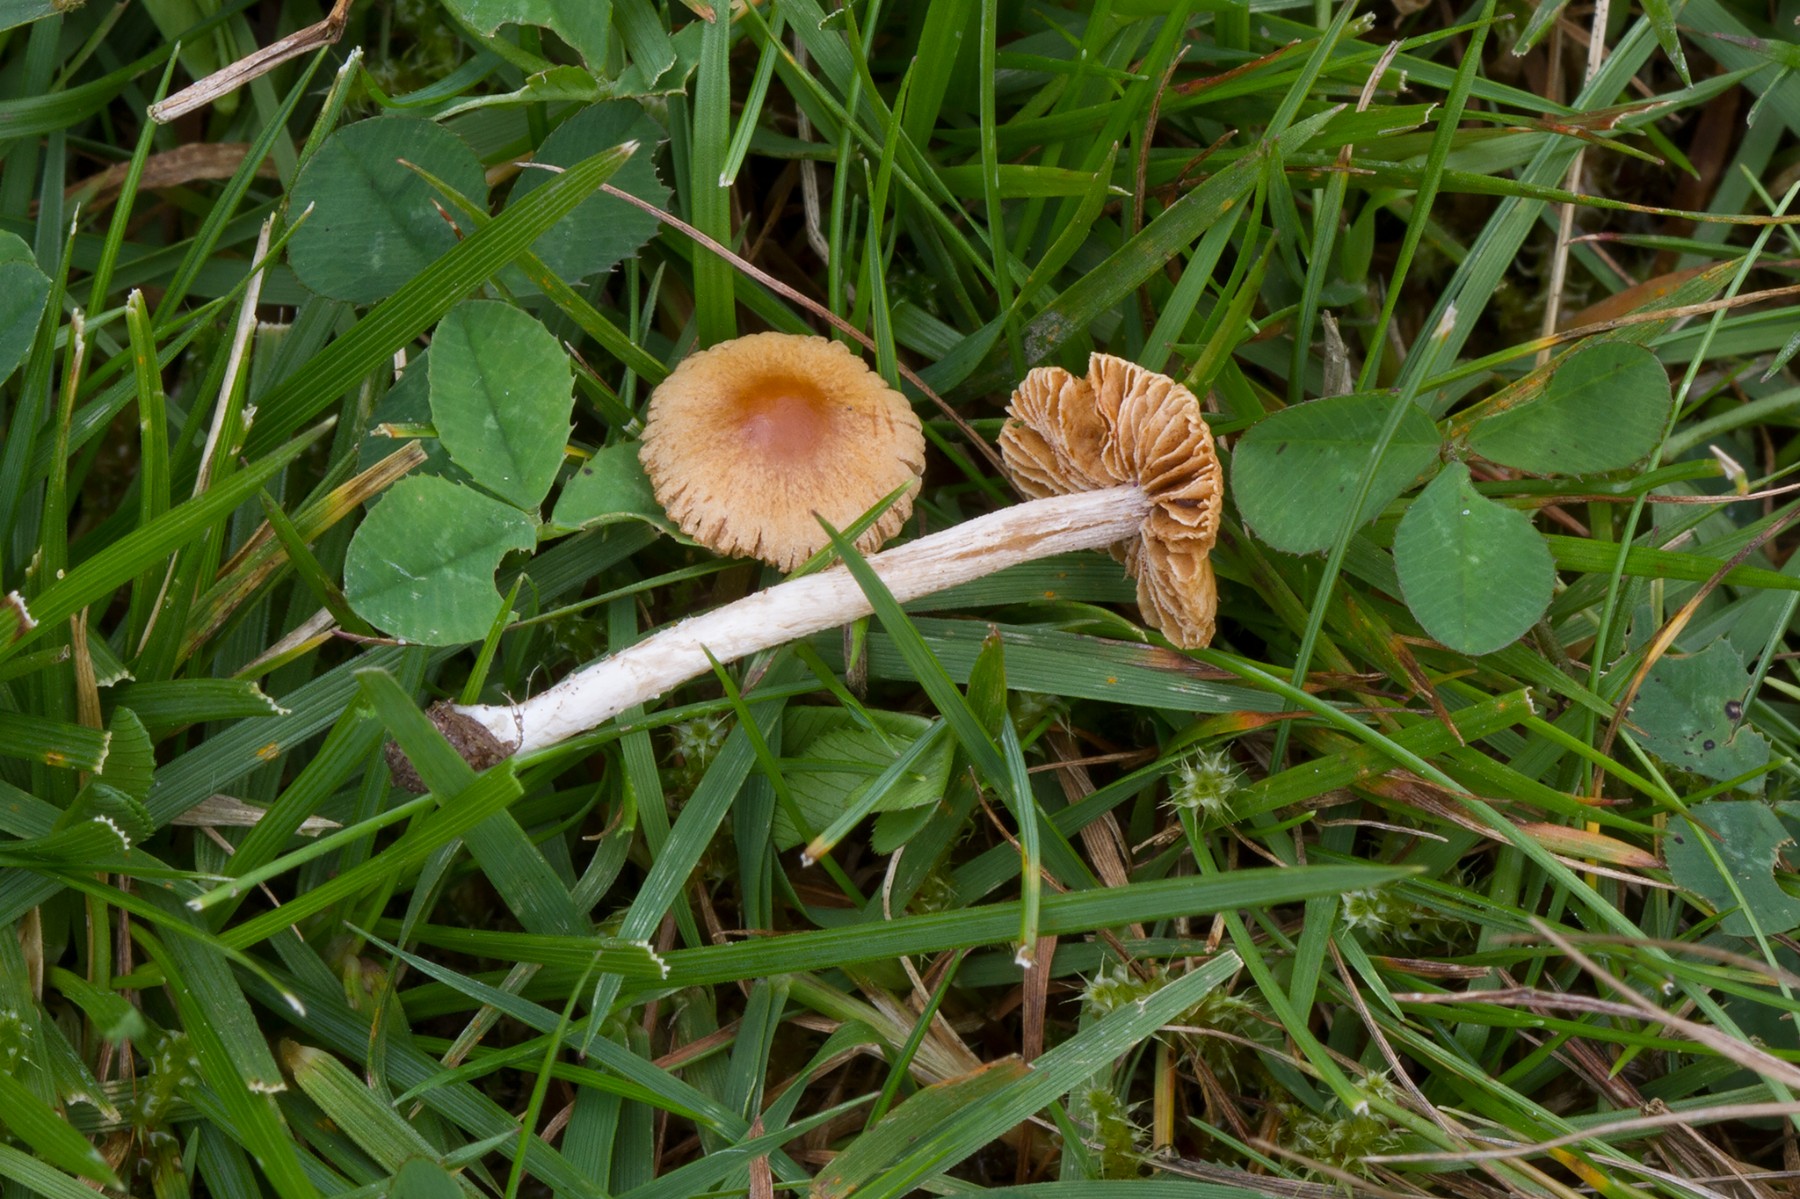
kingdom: Fungi
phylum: Basidiomycota
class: Agaricomycetes
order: Agaricales
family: Bolbitiaceae
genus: Pholiotina
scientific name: Pholiotina sulcata
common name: plisseret dansehat
